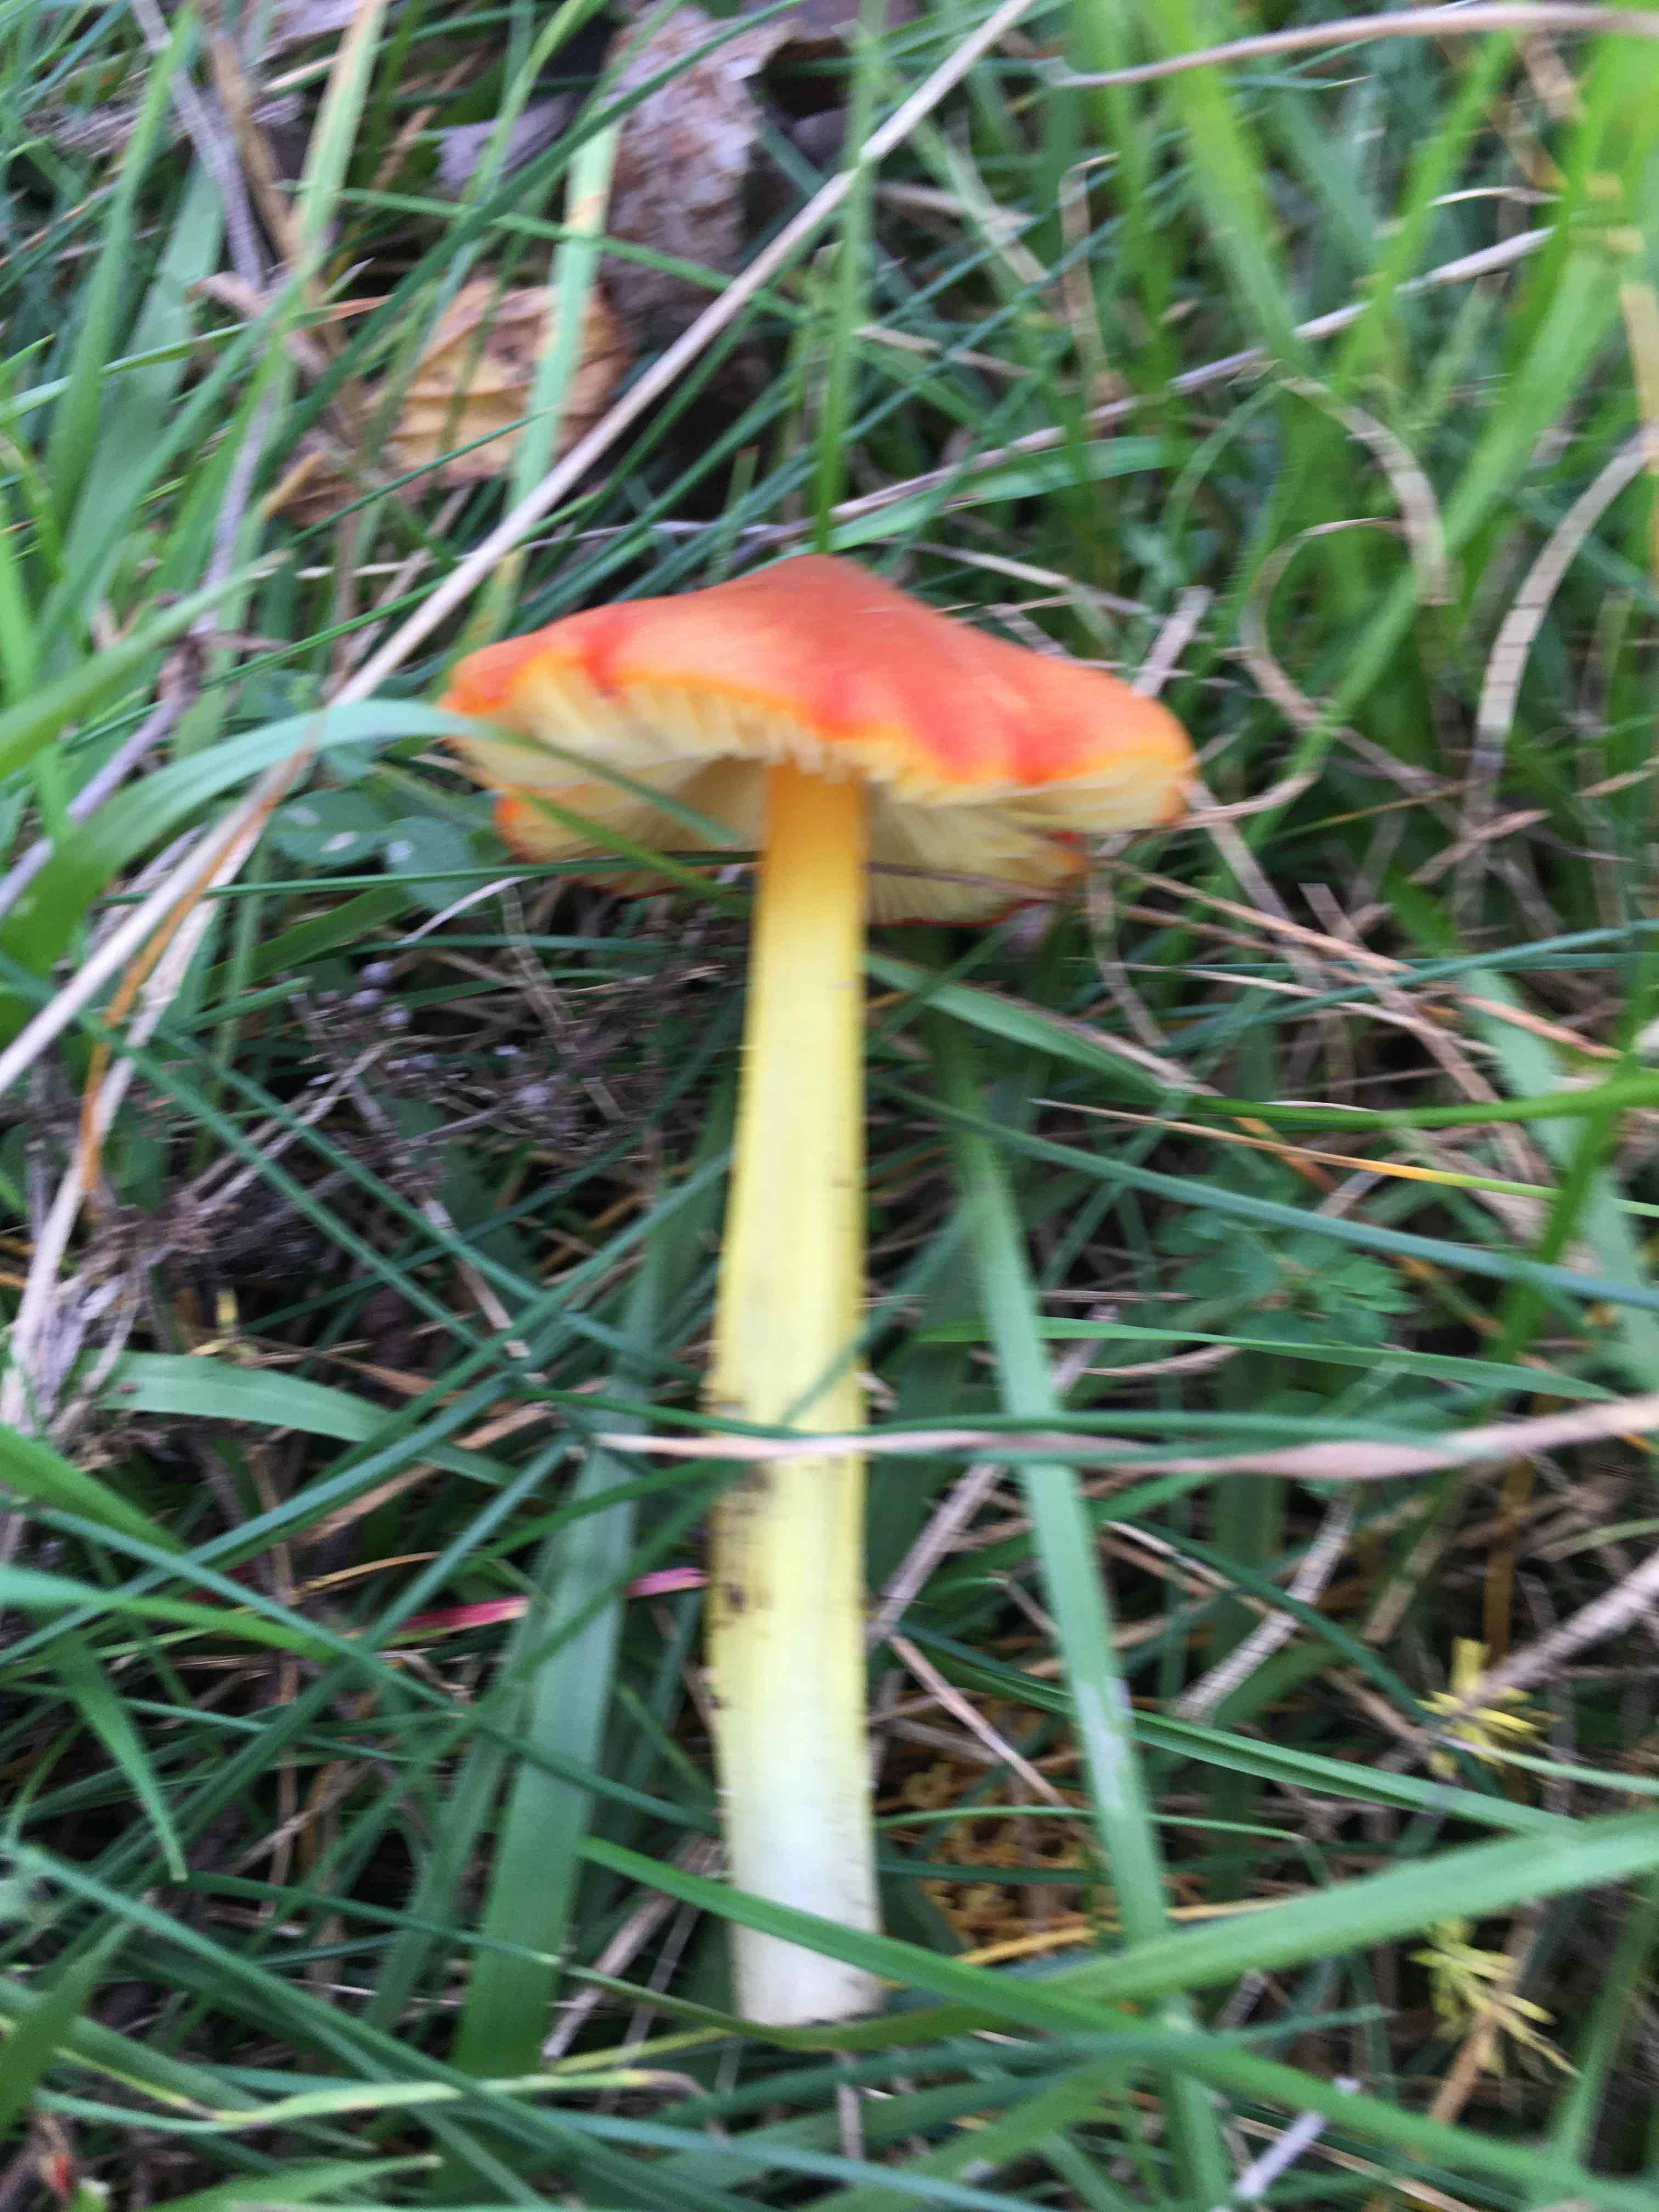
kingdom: Fungi
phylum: Basidiomycota
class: Agaricomycetes
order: Agaricales
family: Hygrophoraceae
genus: Hygrocybe
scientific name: Hygrocybe conica
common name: kegle-vokshat
